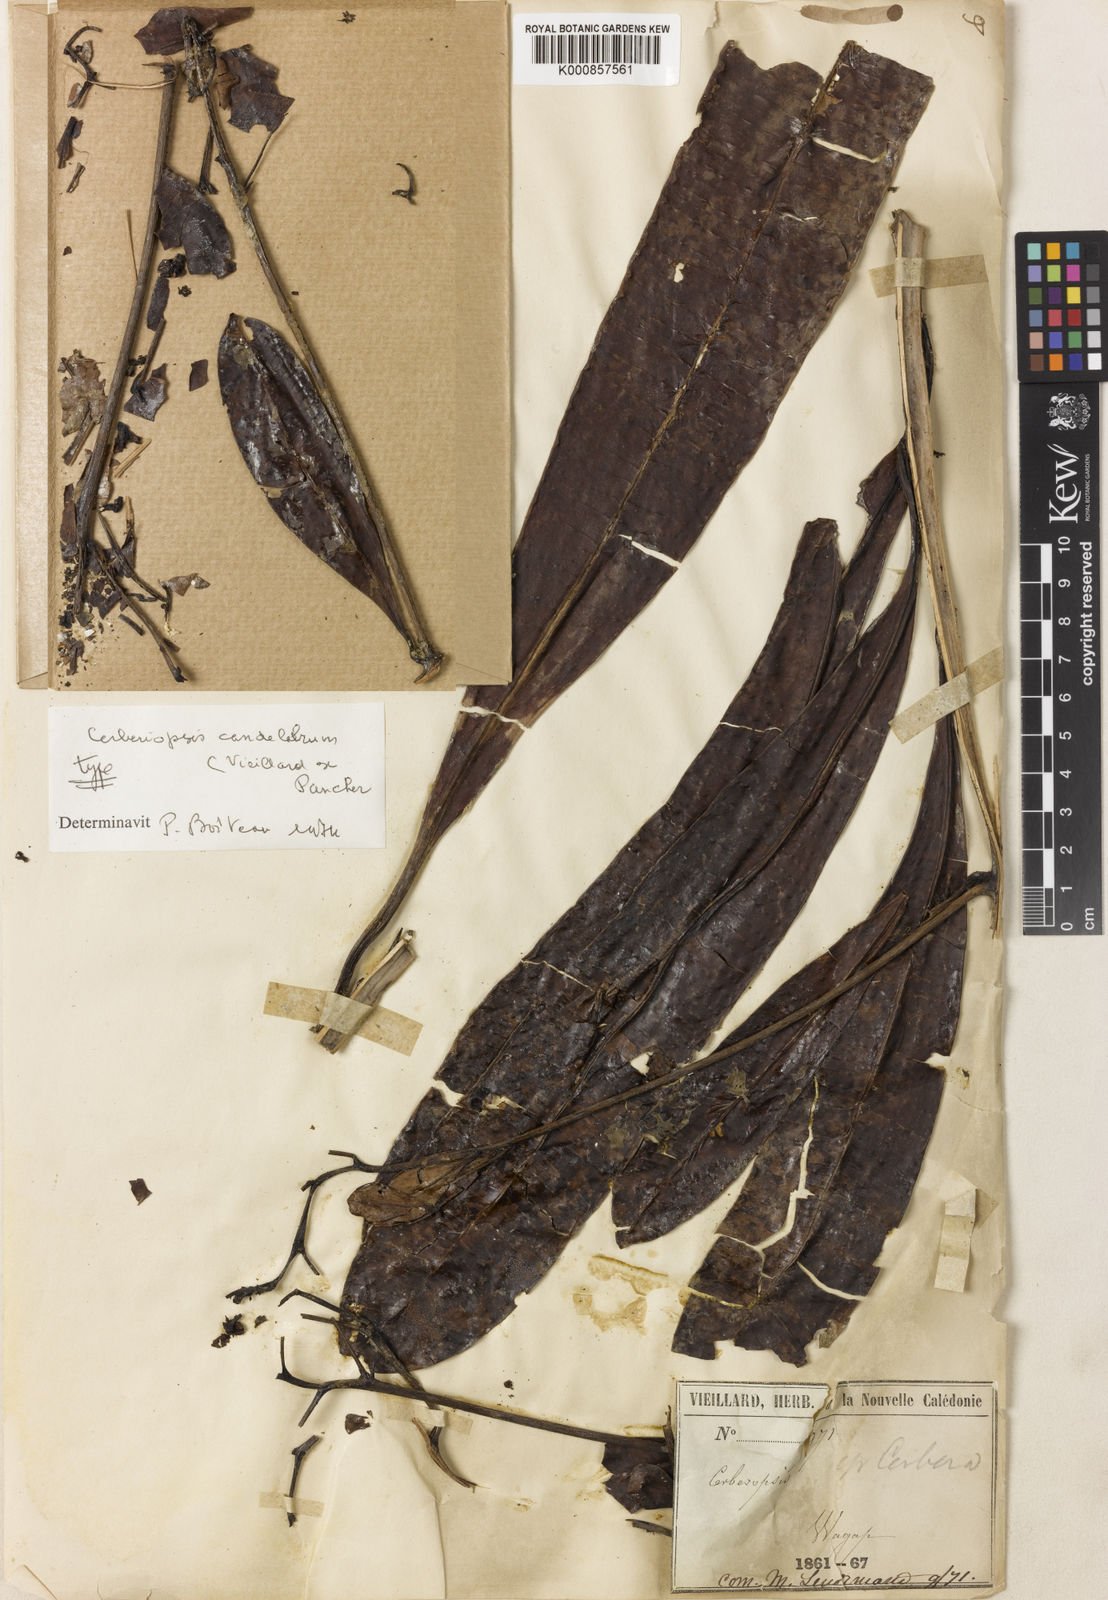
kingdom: Plantae
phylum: Tracheophyta
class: Magnoliopsida
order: Gentianales
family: Apocynaceae
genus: Cerberiopsis
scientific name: Cerberiopsis candelabra
